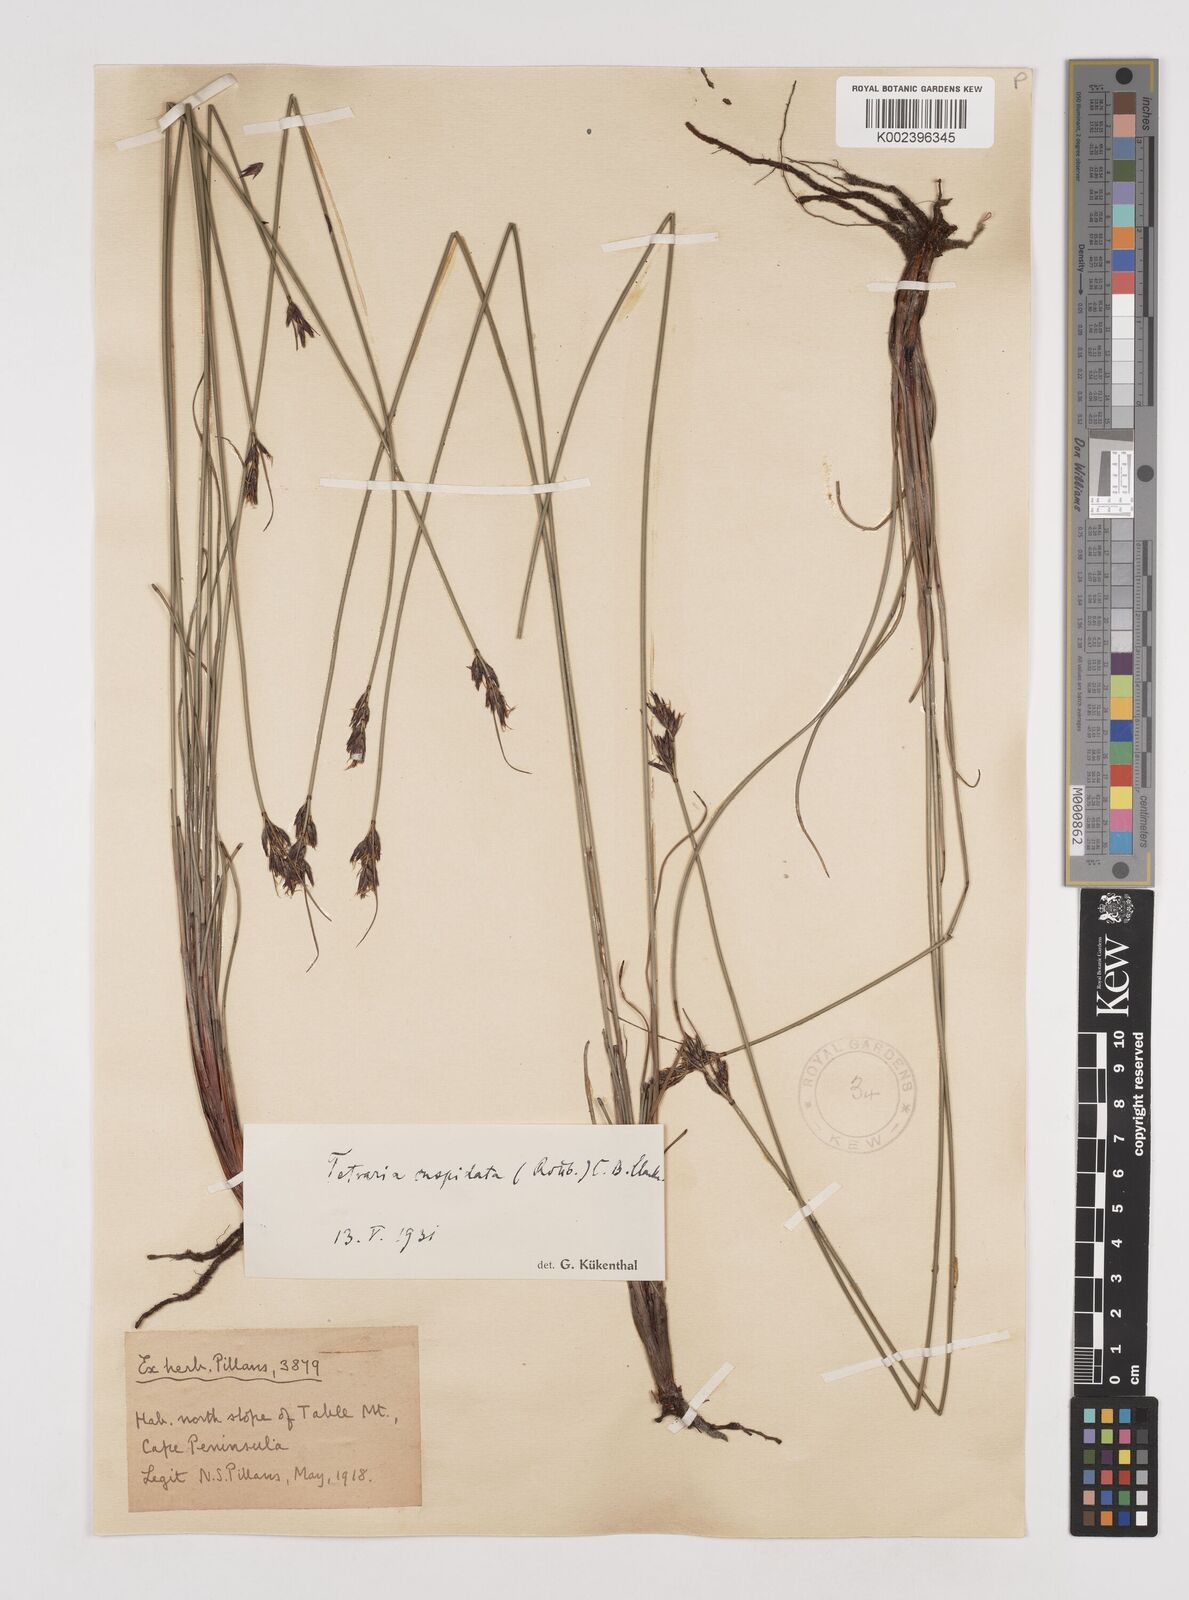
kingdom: Plantae
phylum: Tracheophyta
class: Liliopsida
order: Poales
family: Cyperaceae
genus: Schoenus
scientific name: Schoenus cuspidatus
